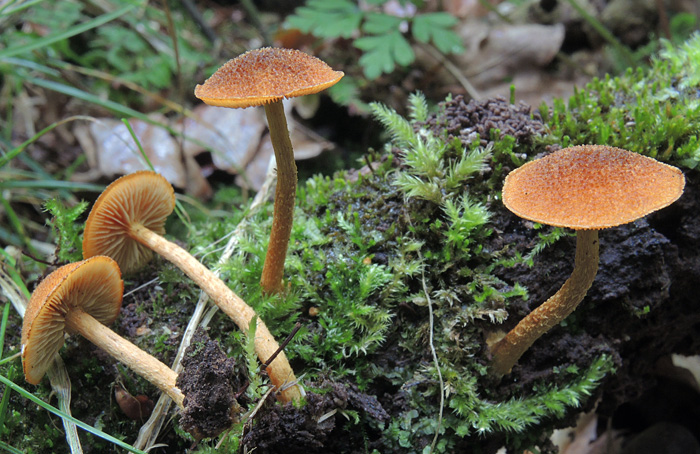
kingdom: Fungi
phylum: Basidiomycota
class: Agaricomycetes
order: Agaricales
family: Tubariaceae
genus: Flammulaster
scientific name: Flammulaster limulatus
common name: gylden grynskælhat
